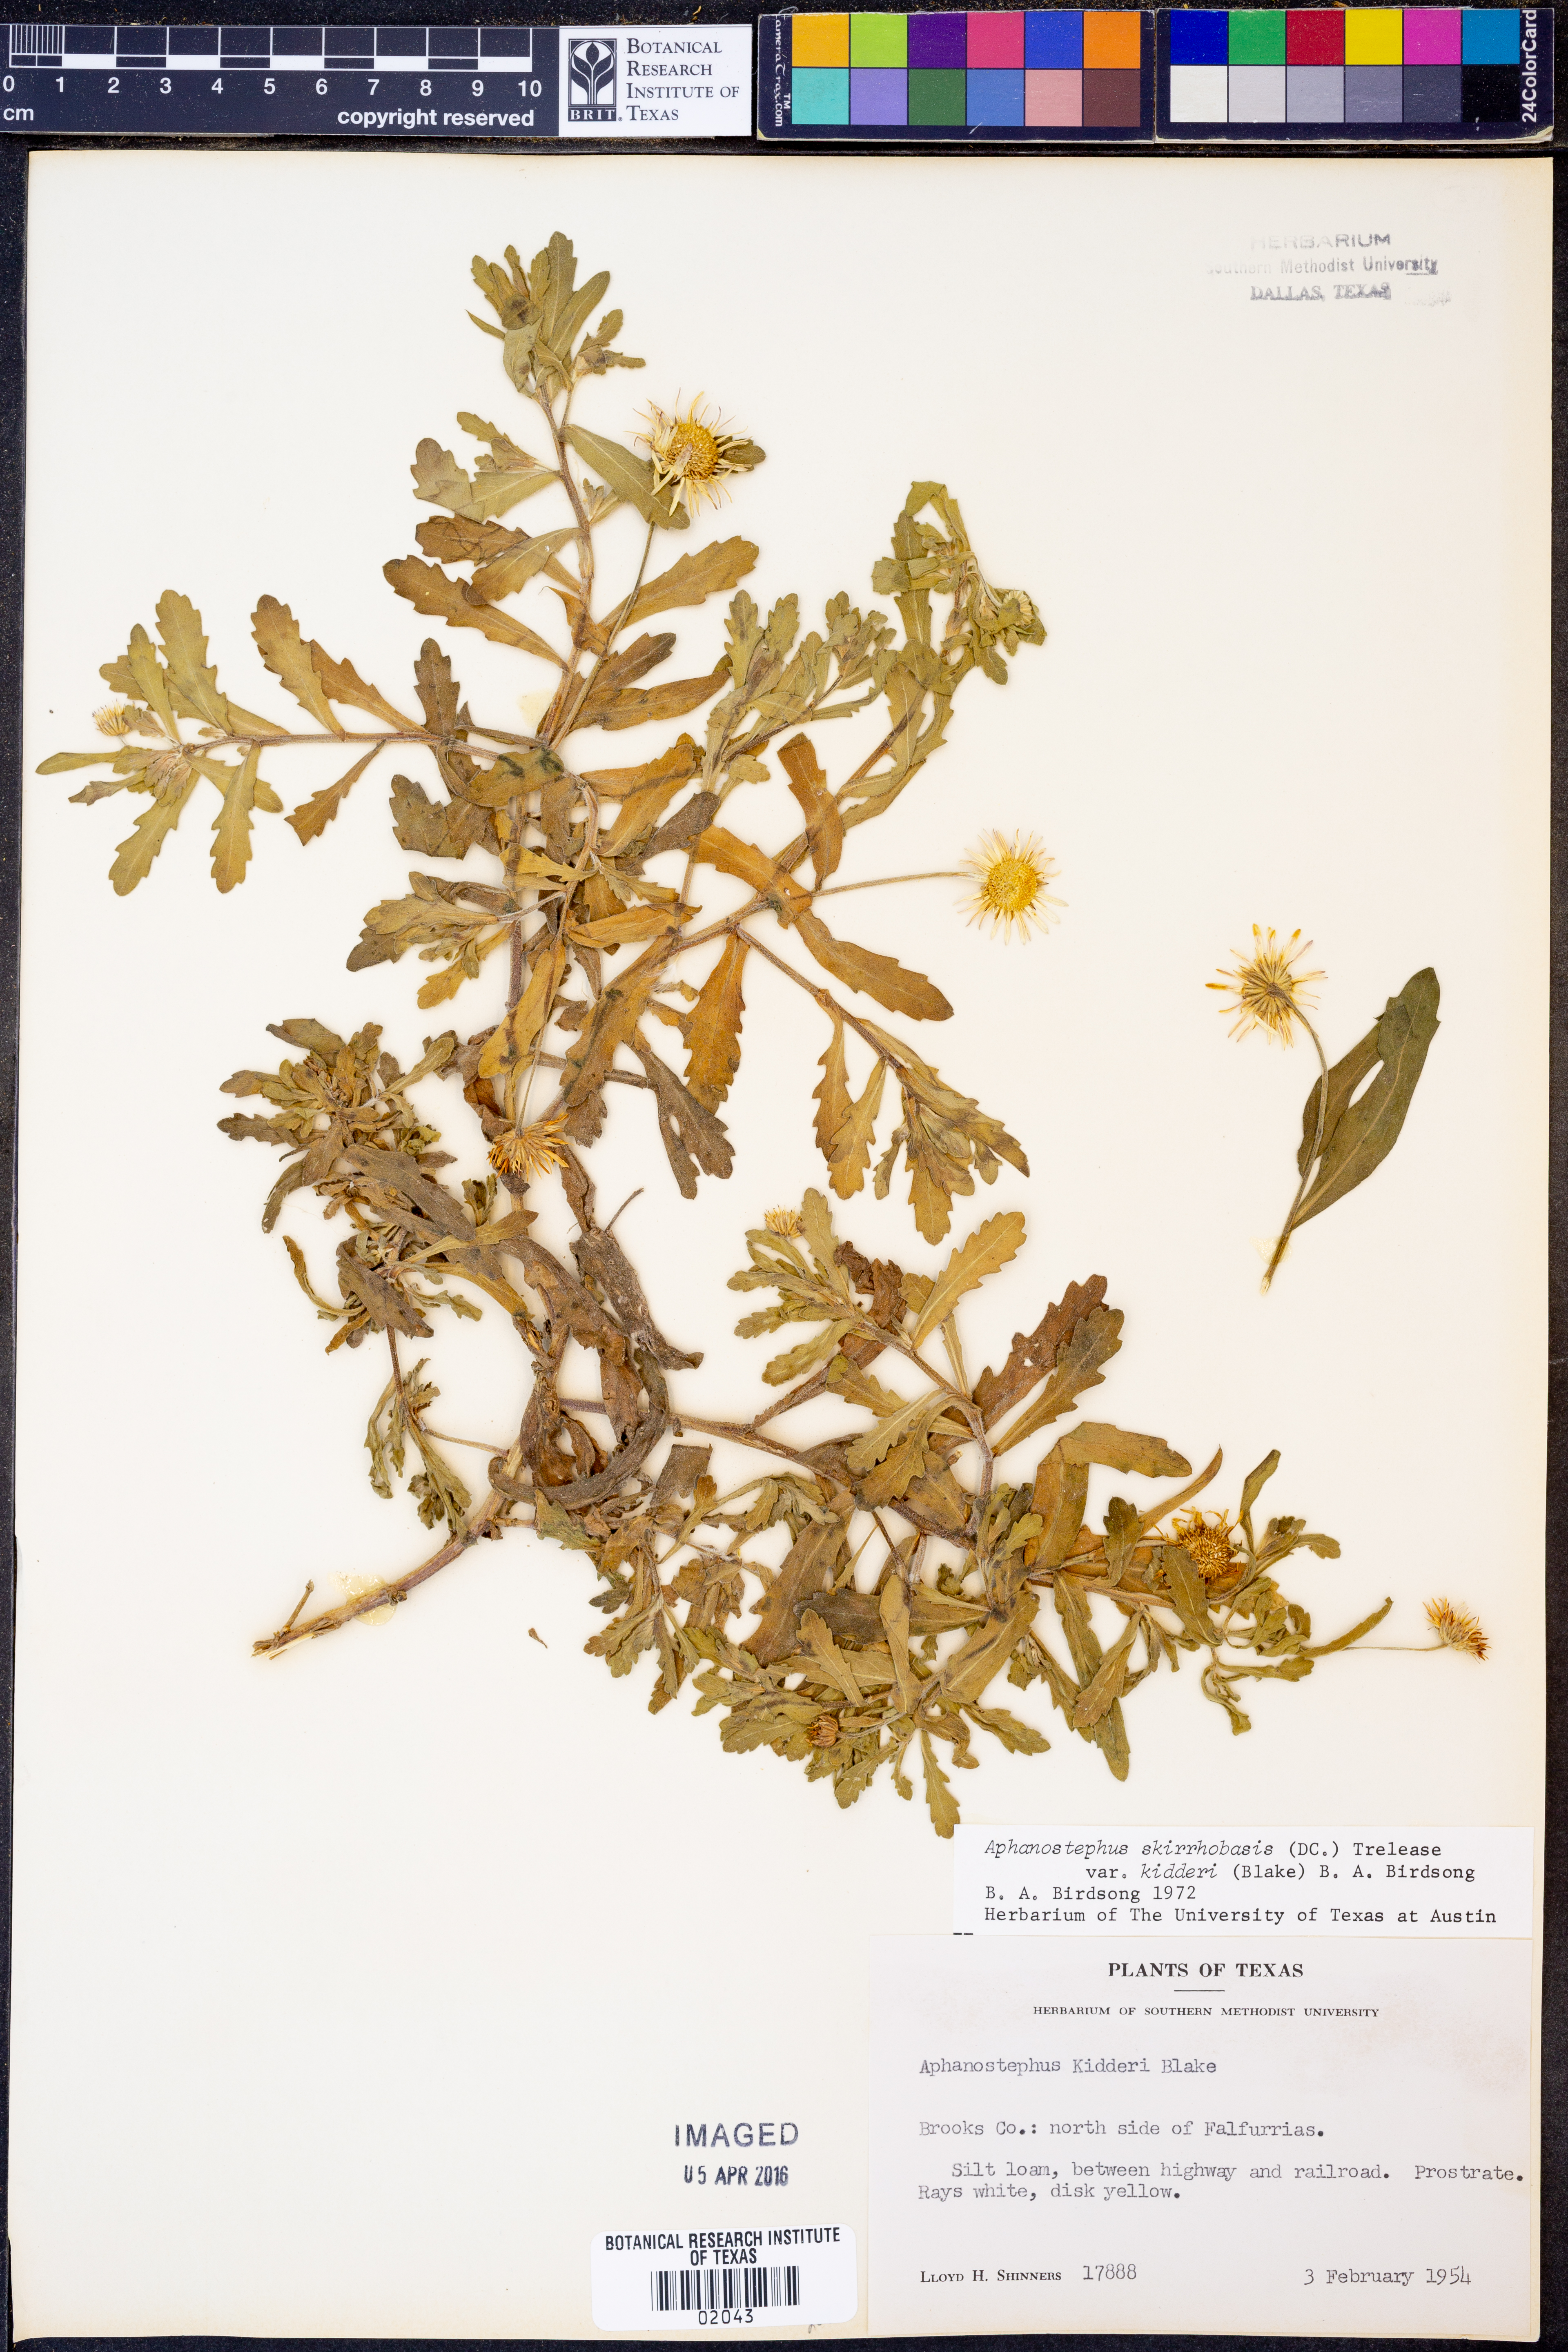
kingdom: Plantae
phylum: Tracheophyta
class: Magnoliopsida
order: Asterales
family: Asteraceae
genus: Aphanostephus
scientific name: Aphanostephus skirrhobasis
